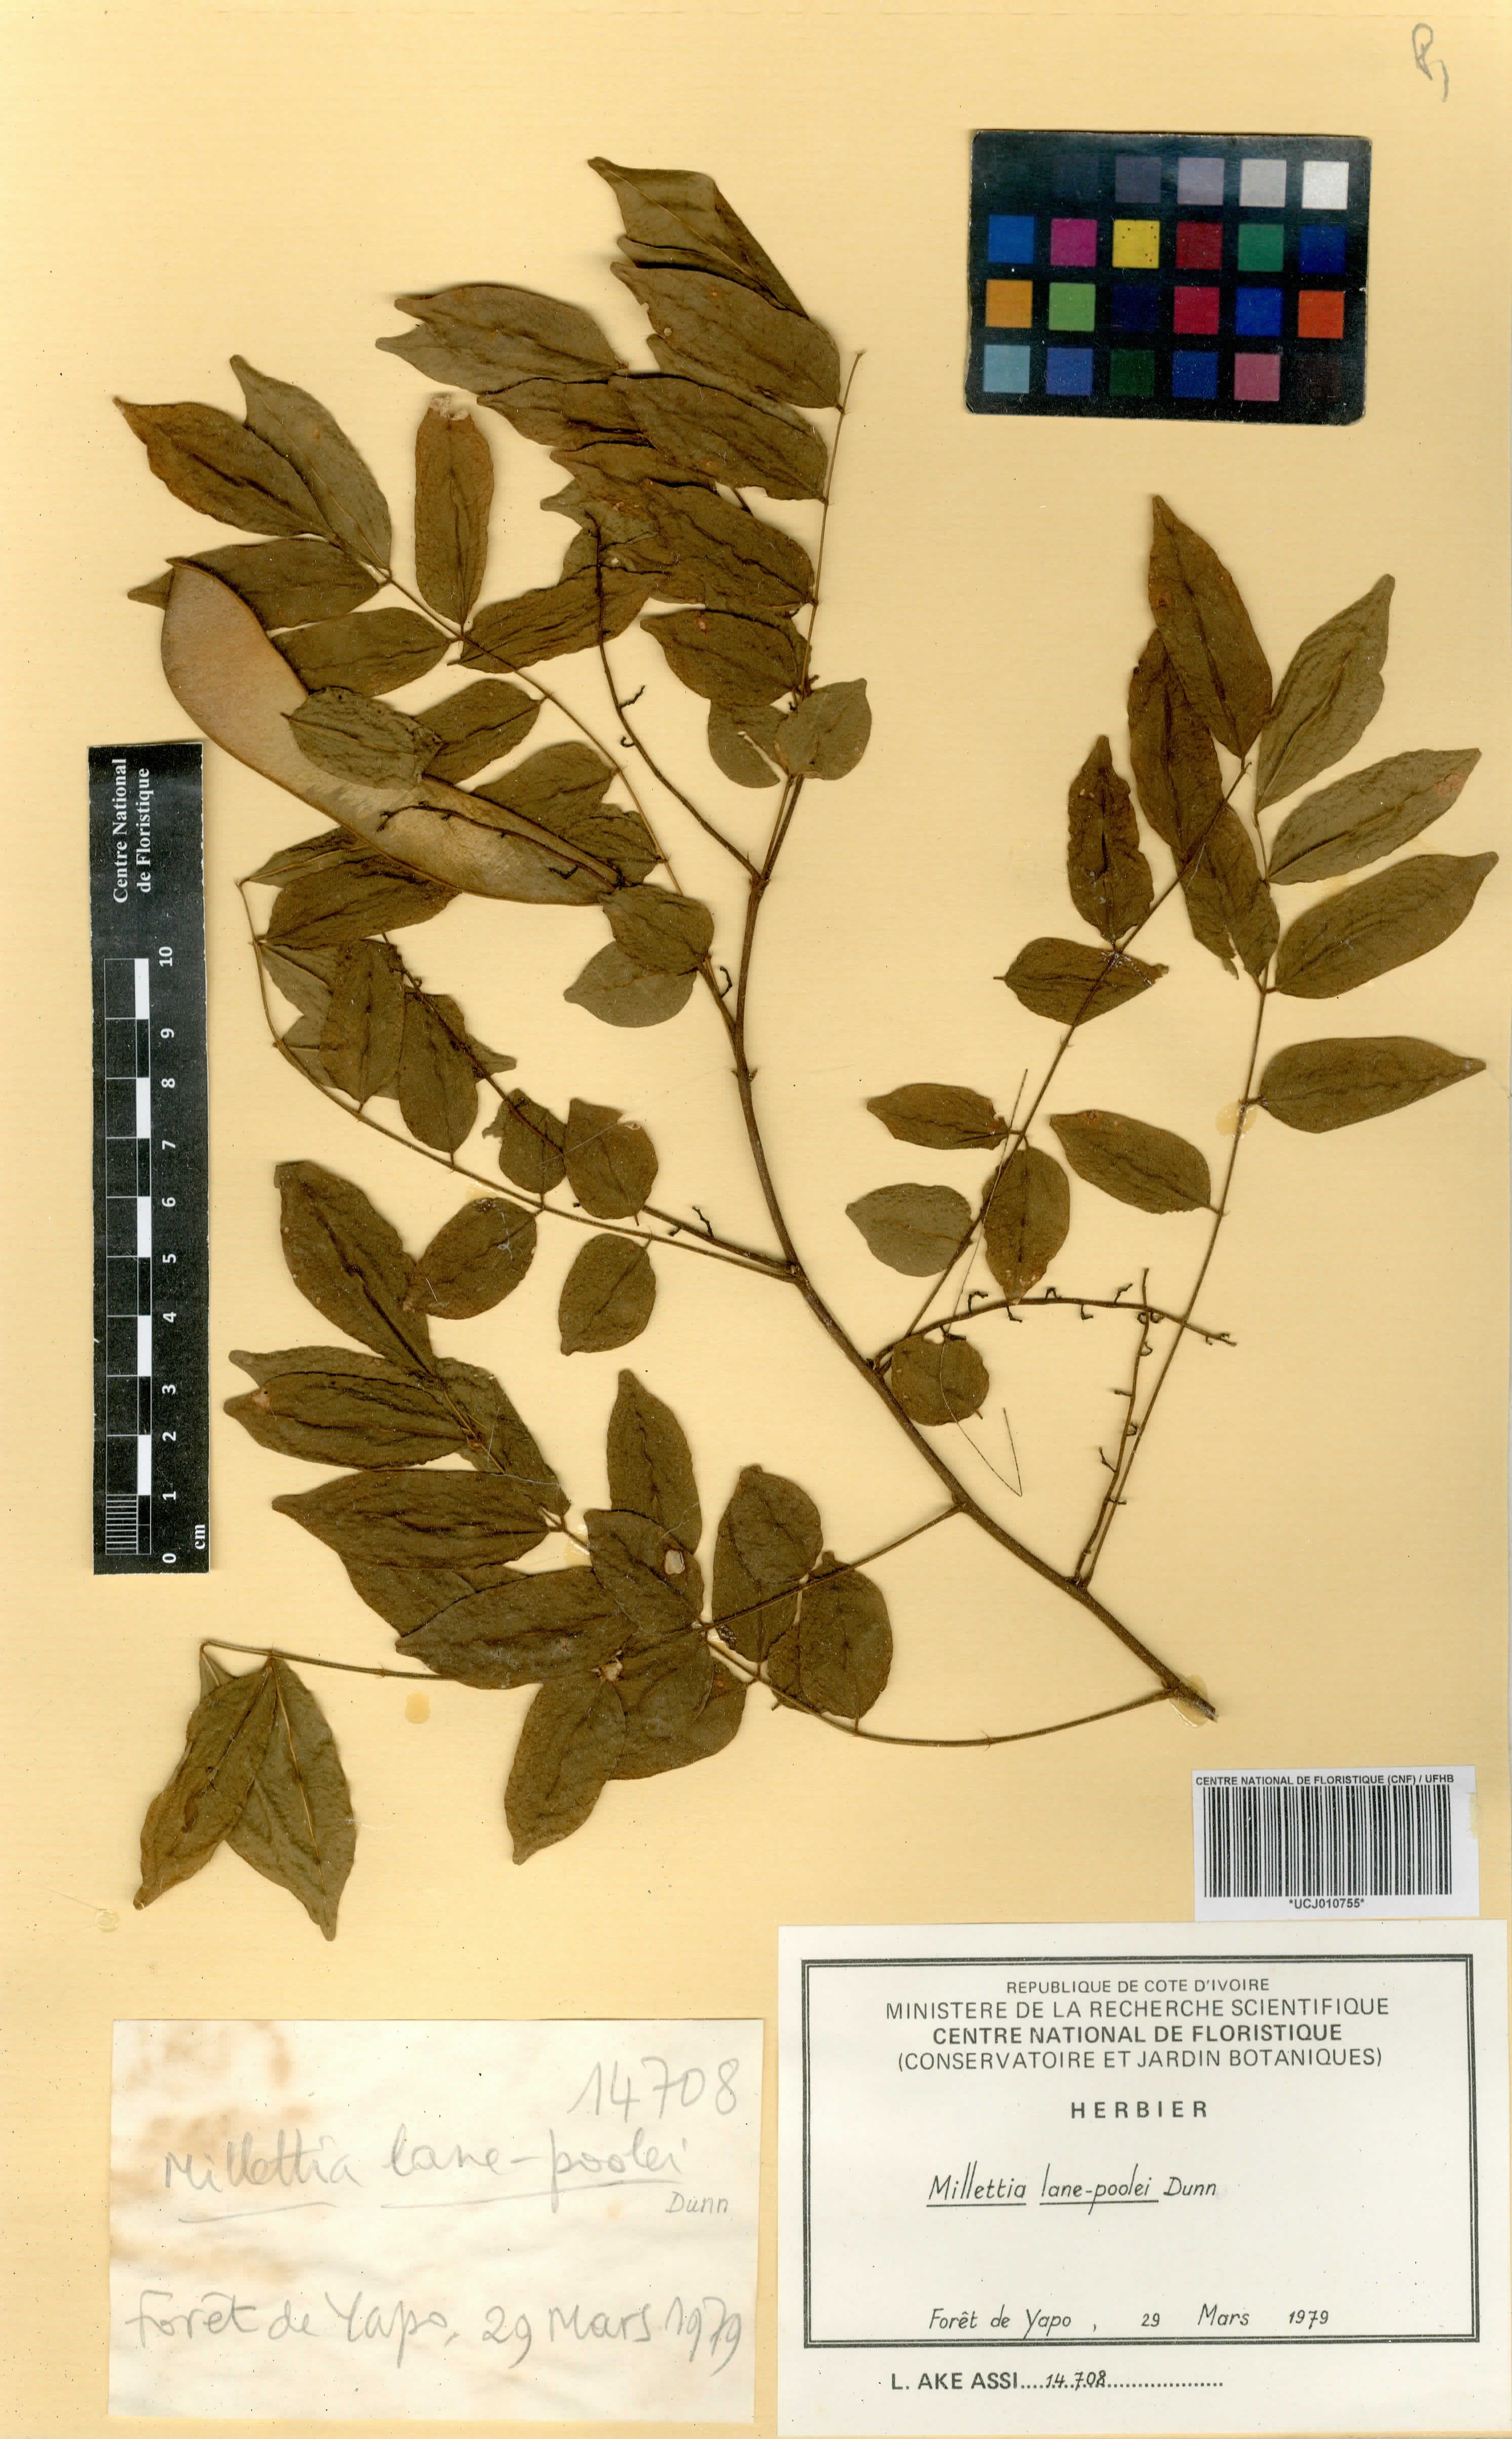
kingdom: Plantae
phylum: Tracheophyta
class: Magnoliopsida
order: Fabales
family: Fabaceae
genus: Millettia
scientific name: Millettia lane-poolei
